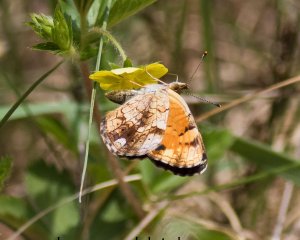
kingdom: Animalia
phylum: Arthropoda
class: Insecta
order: Lepidoptera
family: Nymphalidae
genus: Phyciodes
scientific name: Phyciodes tharos
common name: Pearl Crescent
